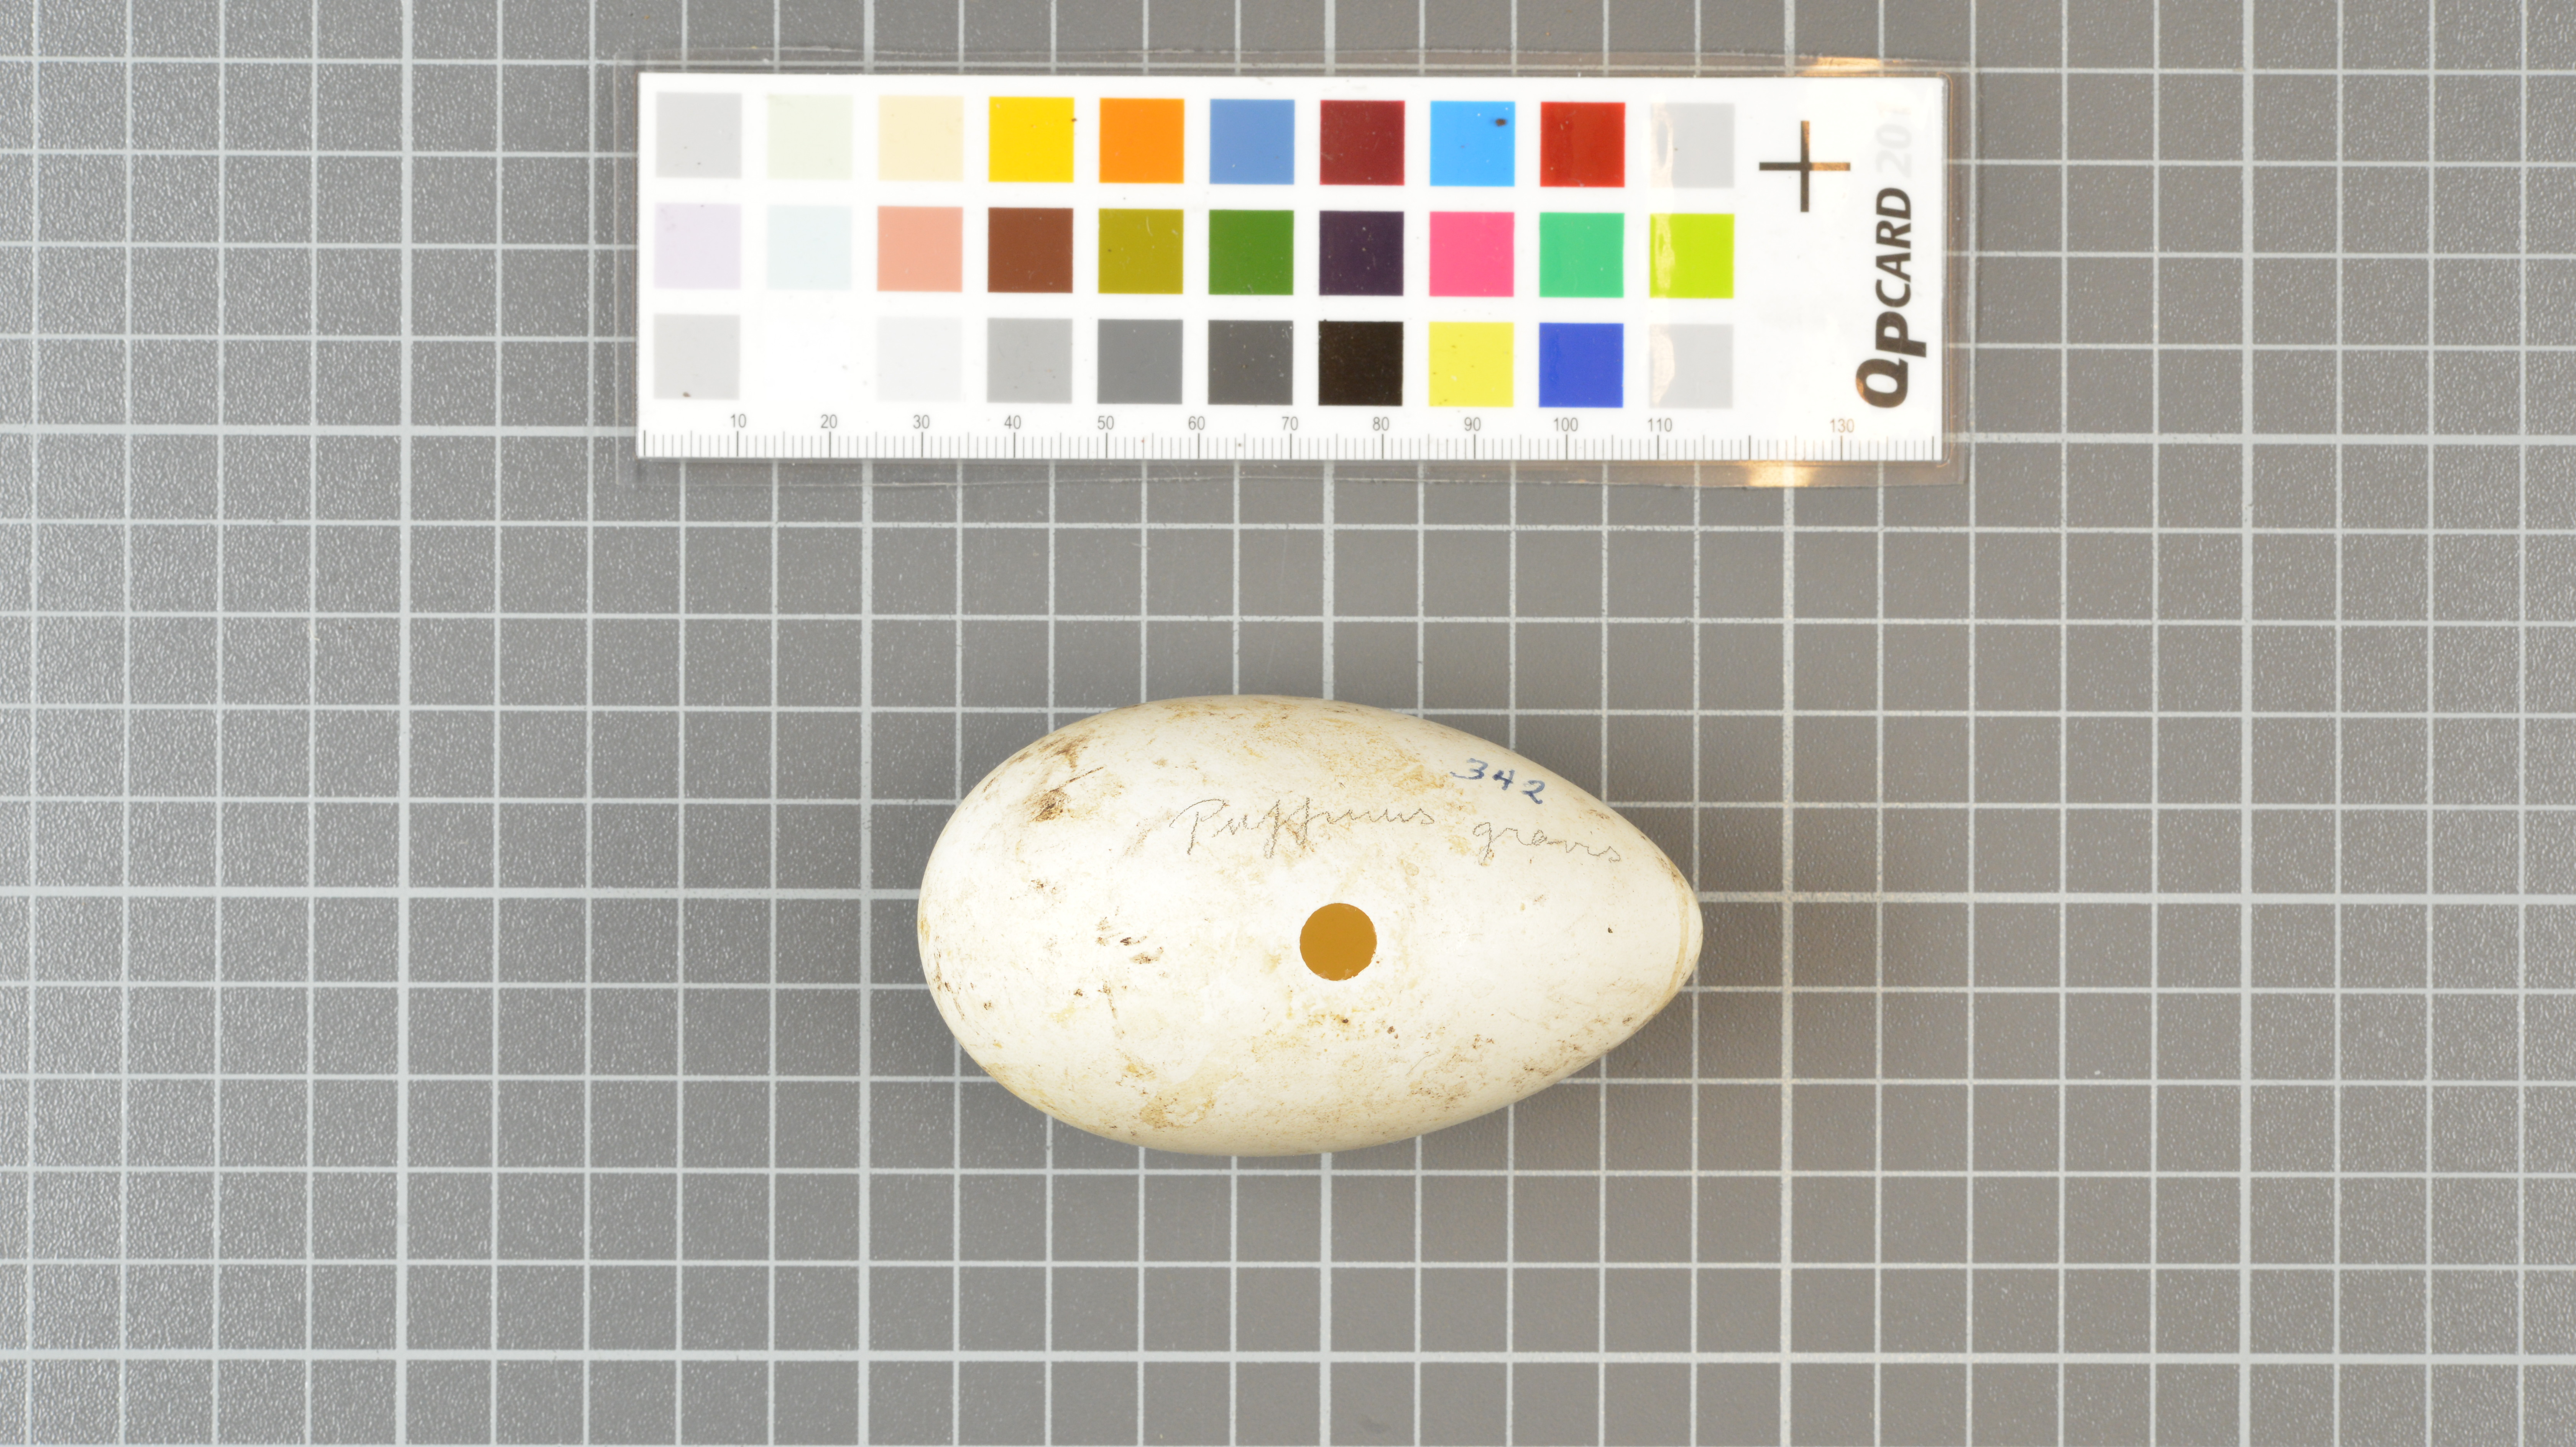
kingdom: Animalia
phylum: Chordata
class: Aves
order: Procellariiformes
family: Procellariidae
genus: Puffinus
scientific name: Puffinus gravis
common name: Great shearwater
